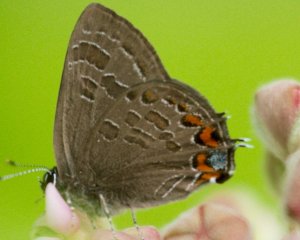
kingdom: Animalia
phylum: Arthropoda
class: Insecta
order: Lepidoptera
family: Lycaenidae
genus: Satyrium
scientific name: Satyrium liparops
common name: Striped Hairstreak
